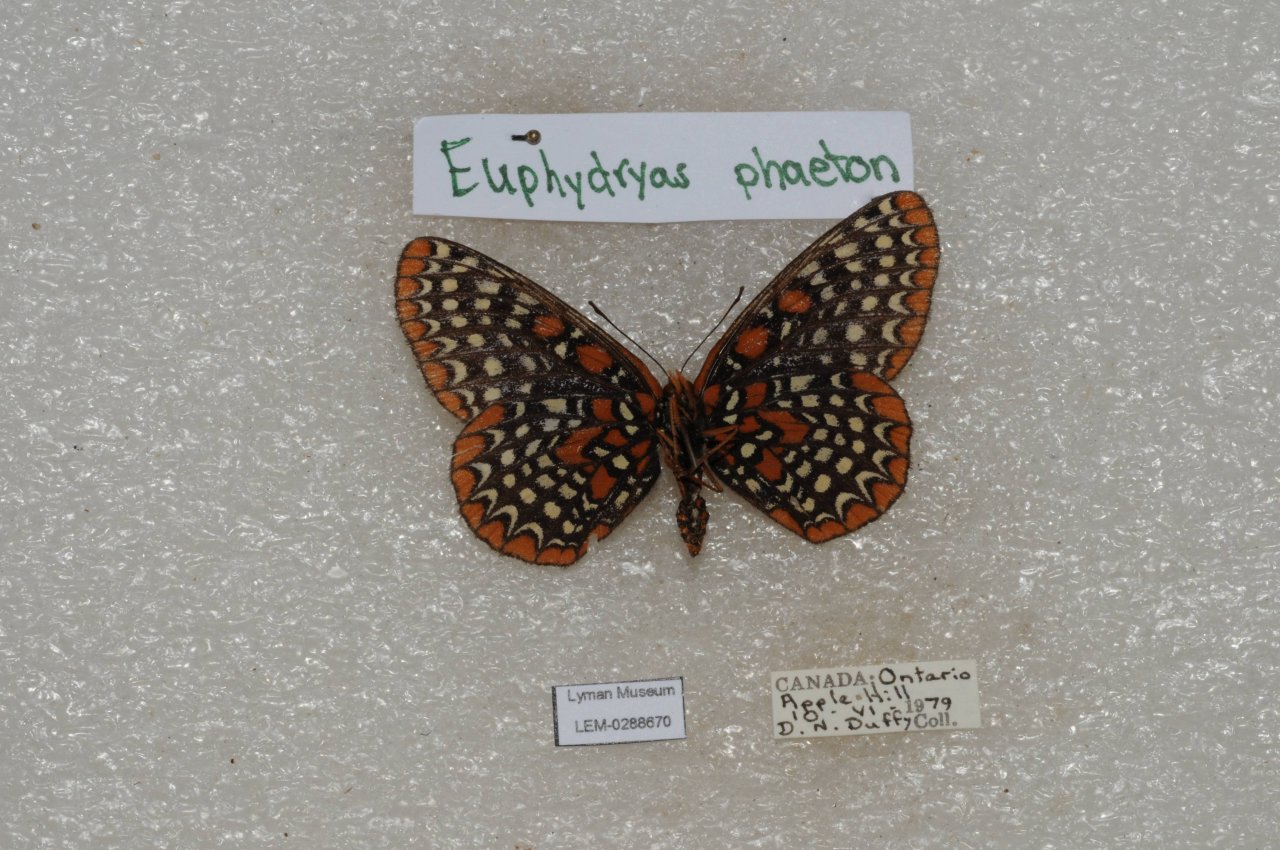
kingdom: Animalia
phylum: Arthropoda
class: Insecta
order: Lepidoptera
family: Nymphalidae
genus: Euphydryas
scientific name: Euphydryas phaeton
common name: Baltimore Checkerspot
